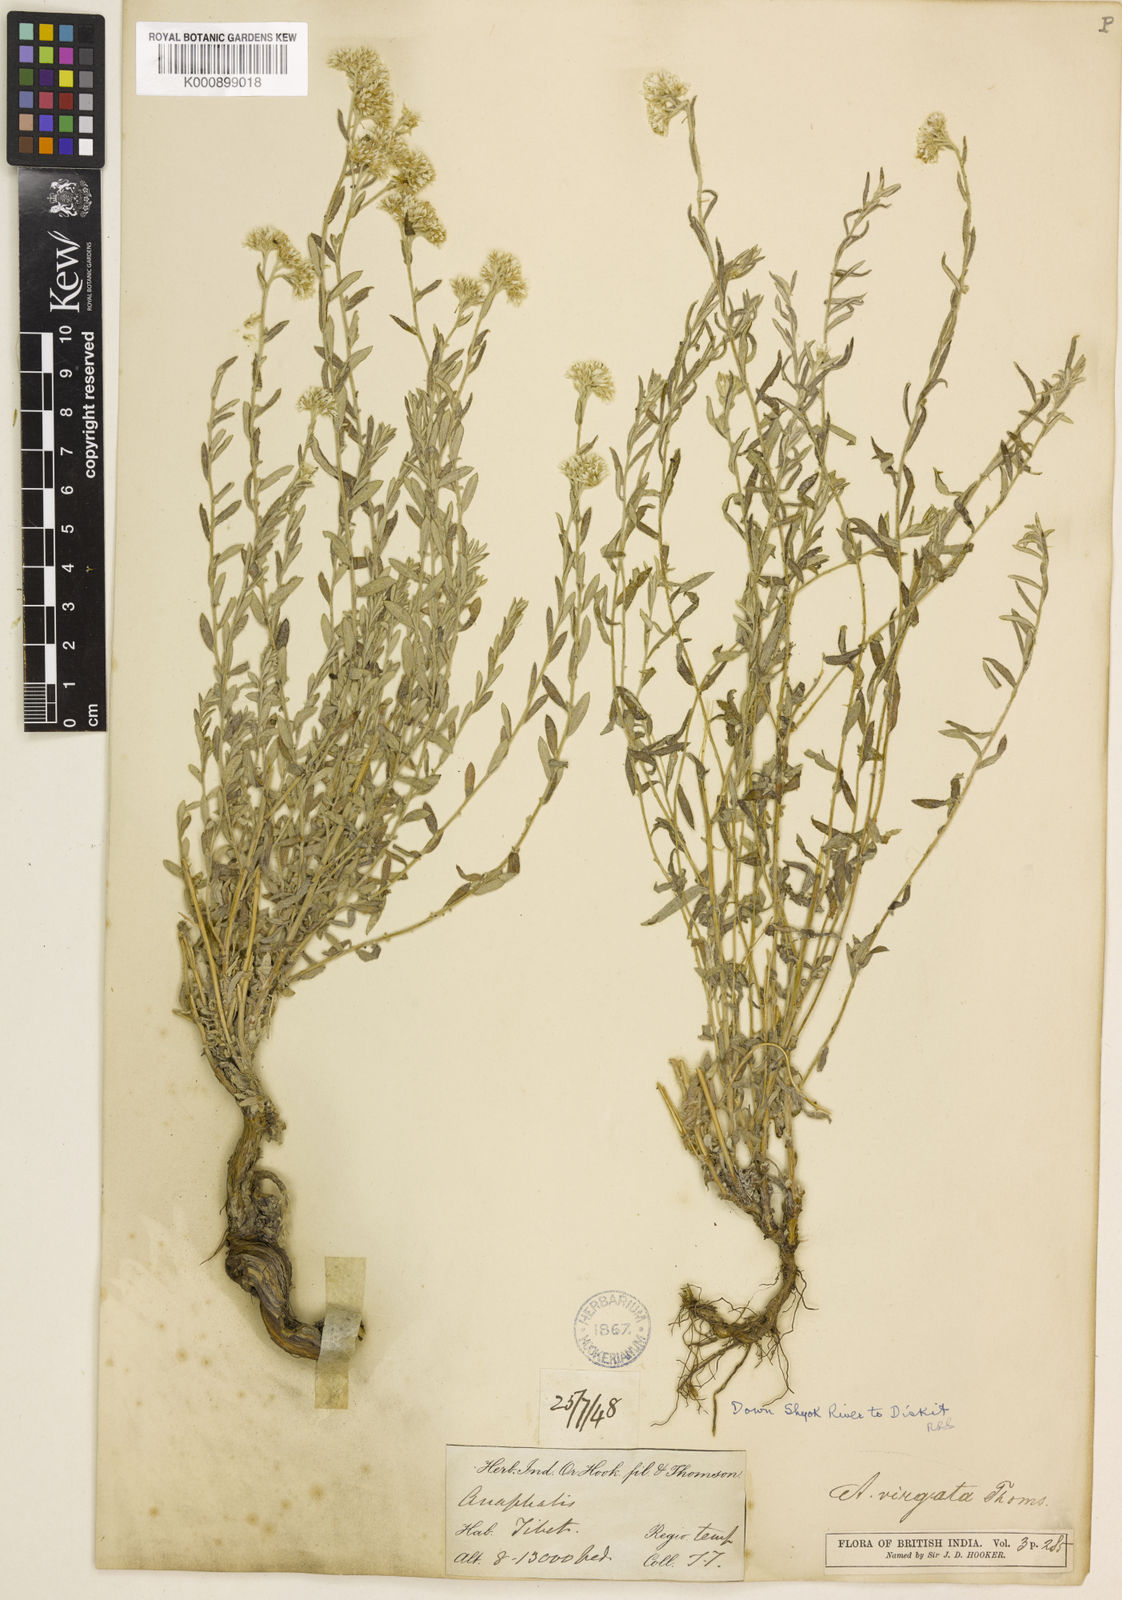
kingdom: Plantae
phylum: Tracheophyta
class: Magnoliopsida
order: Asterales
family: Asteraceae
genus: Anaphalis
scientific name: Anaphalis virgata
